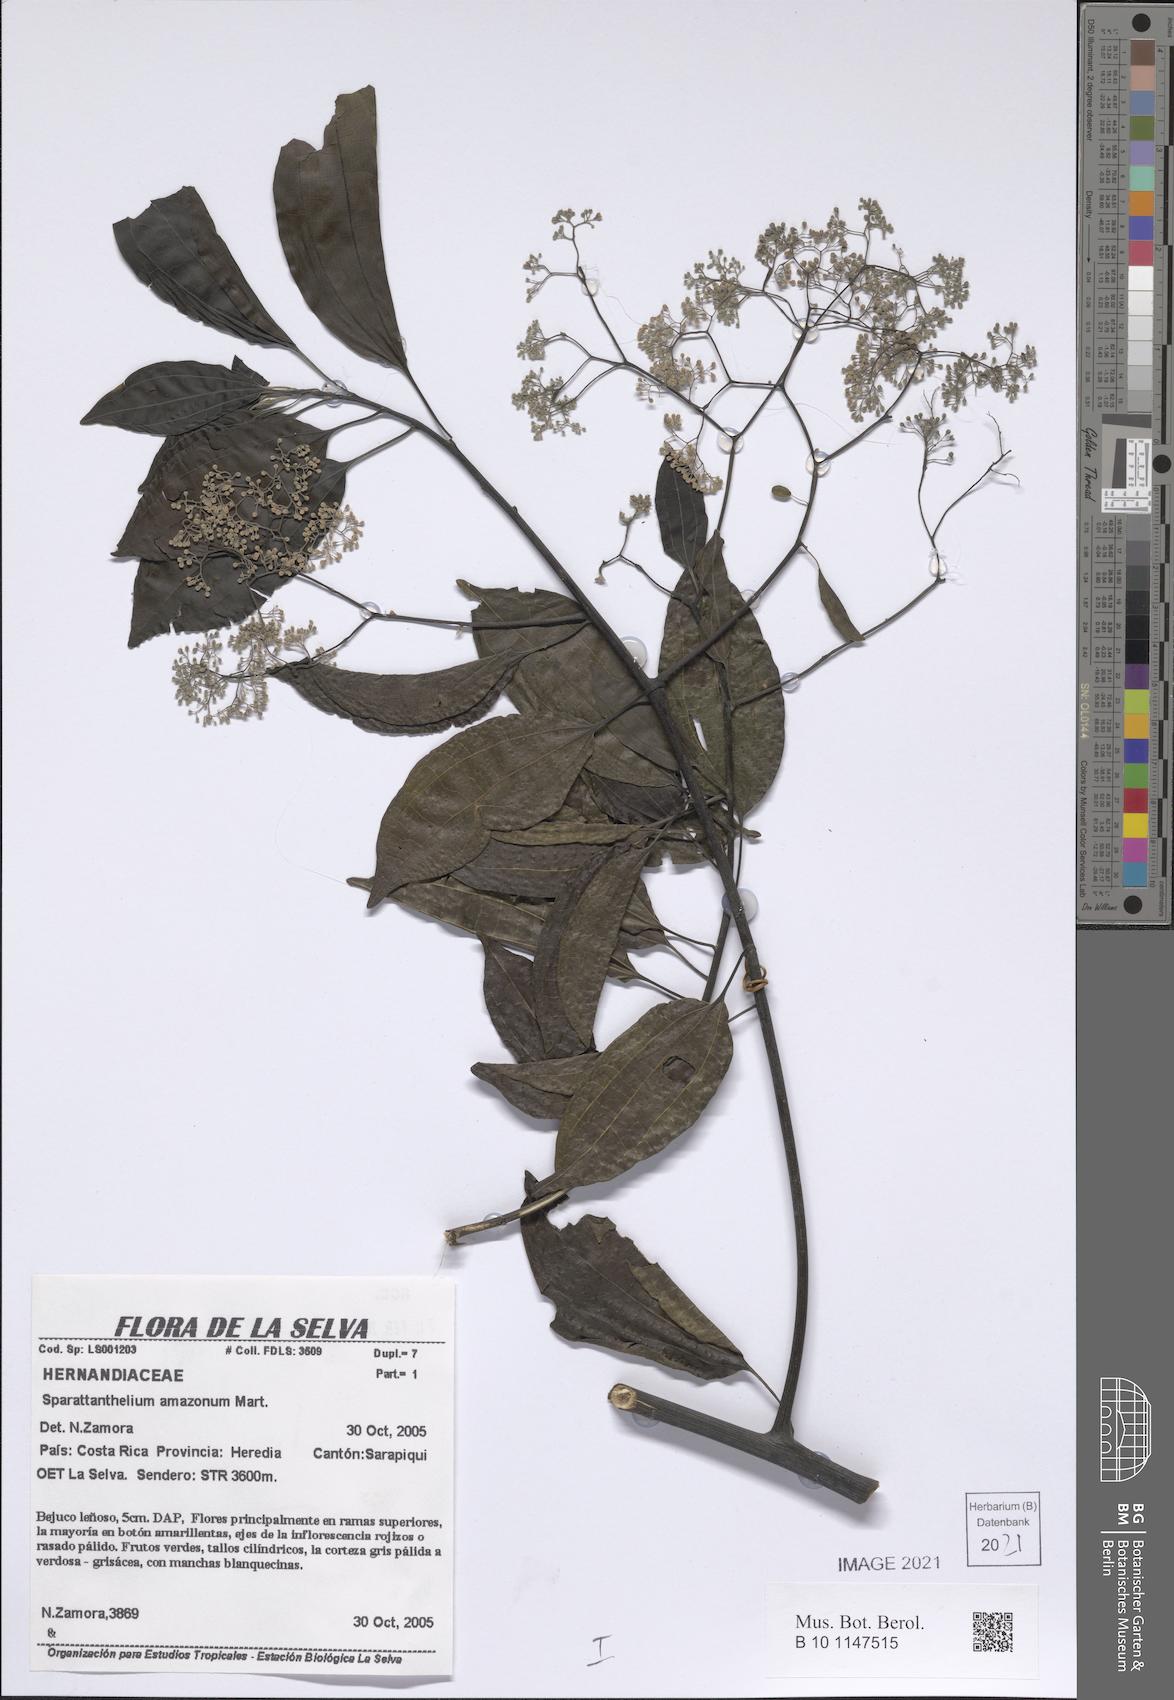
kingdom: Plantae
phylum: Tracheophyta
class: Magnoliopsida
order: Laurales
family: Hernandiaceae
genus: Sparattanthelium
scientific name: Sparattanthelium amazonum
